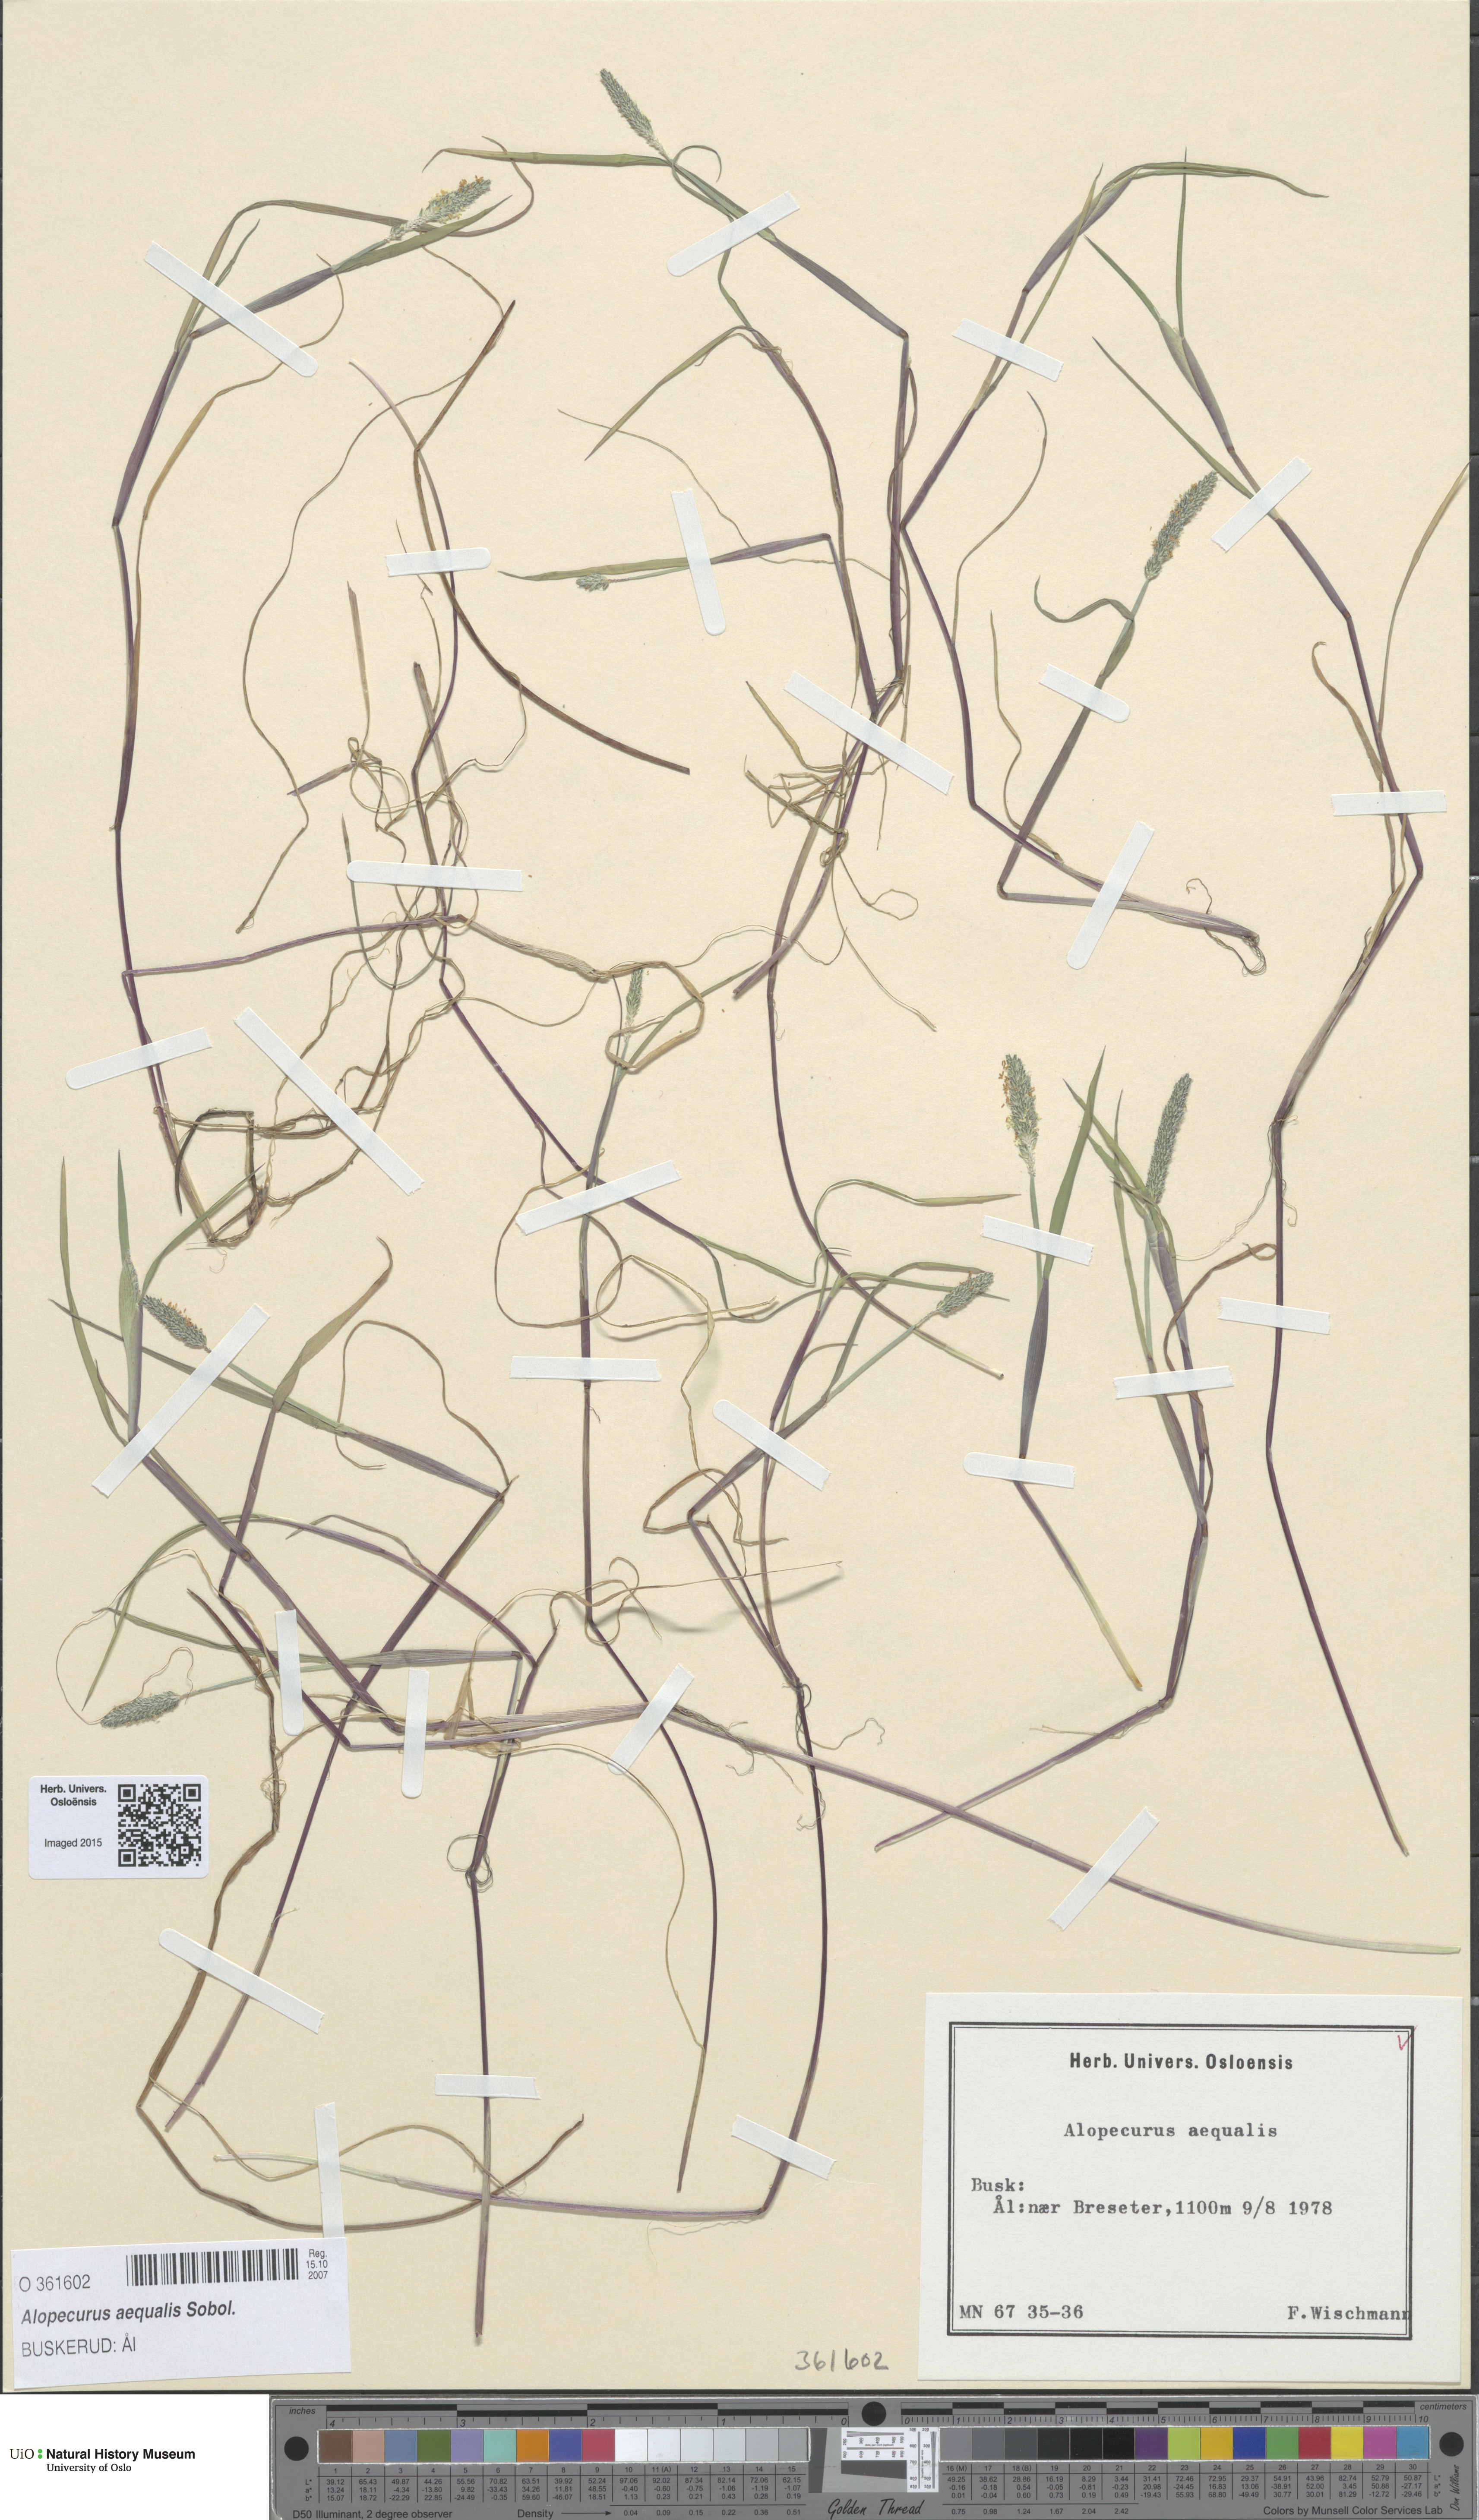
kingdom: Plantae
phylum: Tracheophyta
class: Liliopsida
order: Poales
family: Poaceae
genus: Alopecurus
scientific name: Alopecurus aequalis
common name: Orange foxtail
